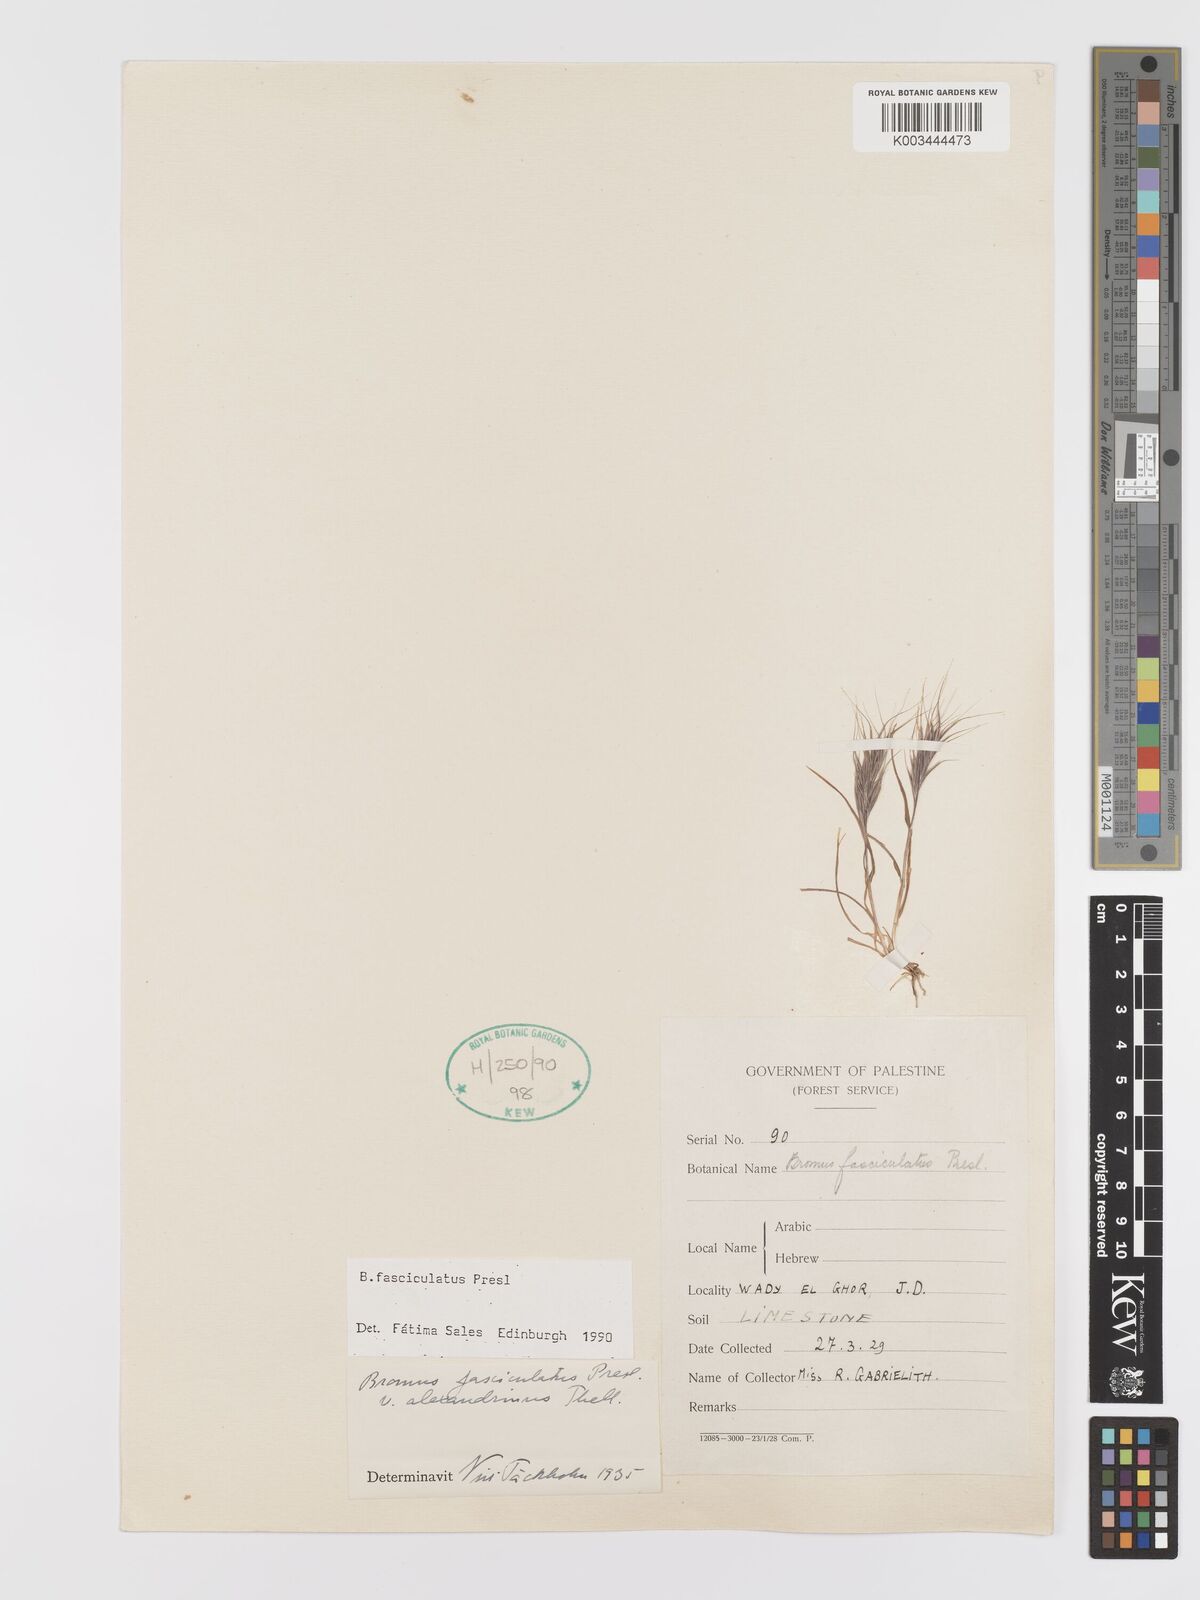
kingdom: Plantae
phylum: Tracheophyta
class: Liliopsida
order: Poales
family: Poaceae
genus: Bromus
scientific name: Bromus fasciculatus
